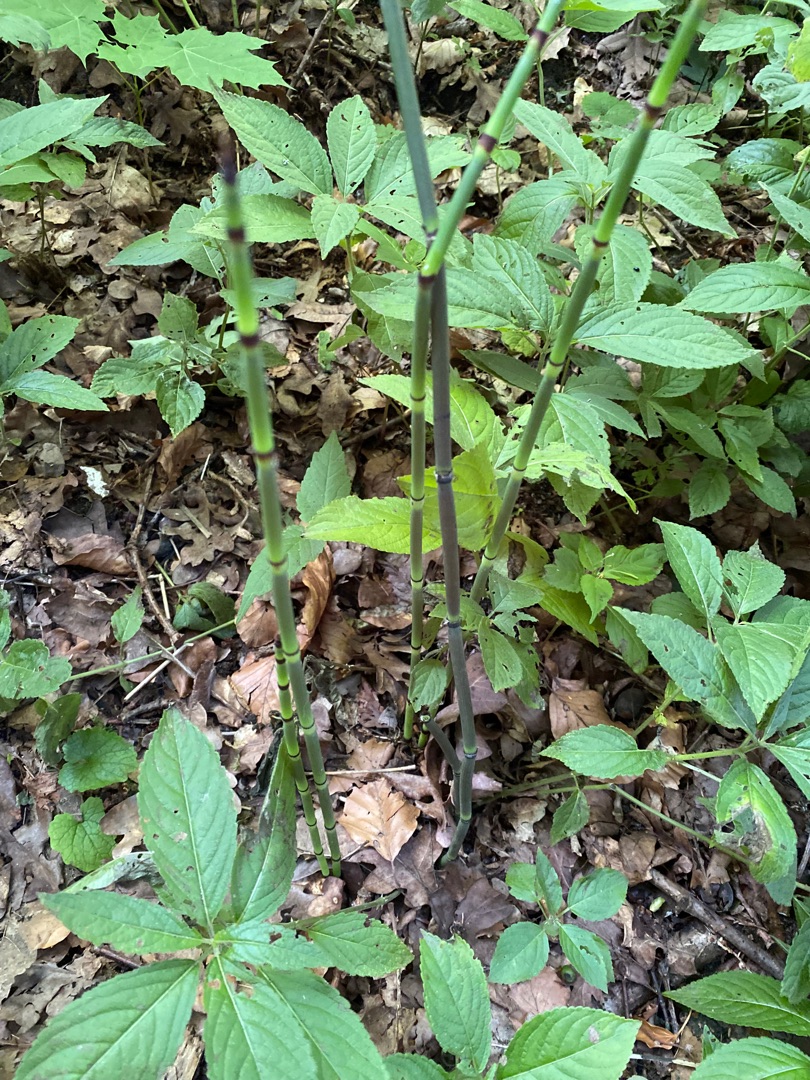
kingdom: Plantae
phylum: Tracheophyta
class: Polypodiopsida
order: Equisetales
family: Equisetaceae
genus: Equisetum
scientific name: Equisetum hyemale
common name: Skavgræs
